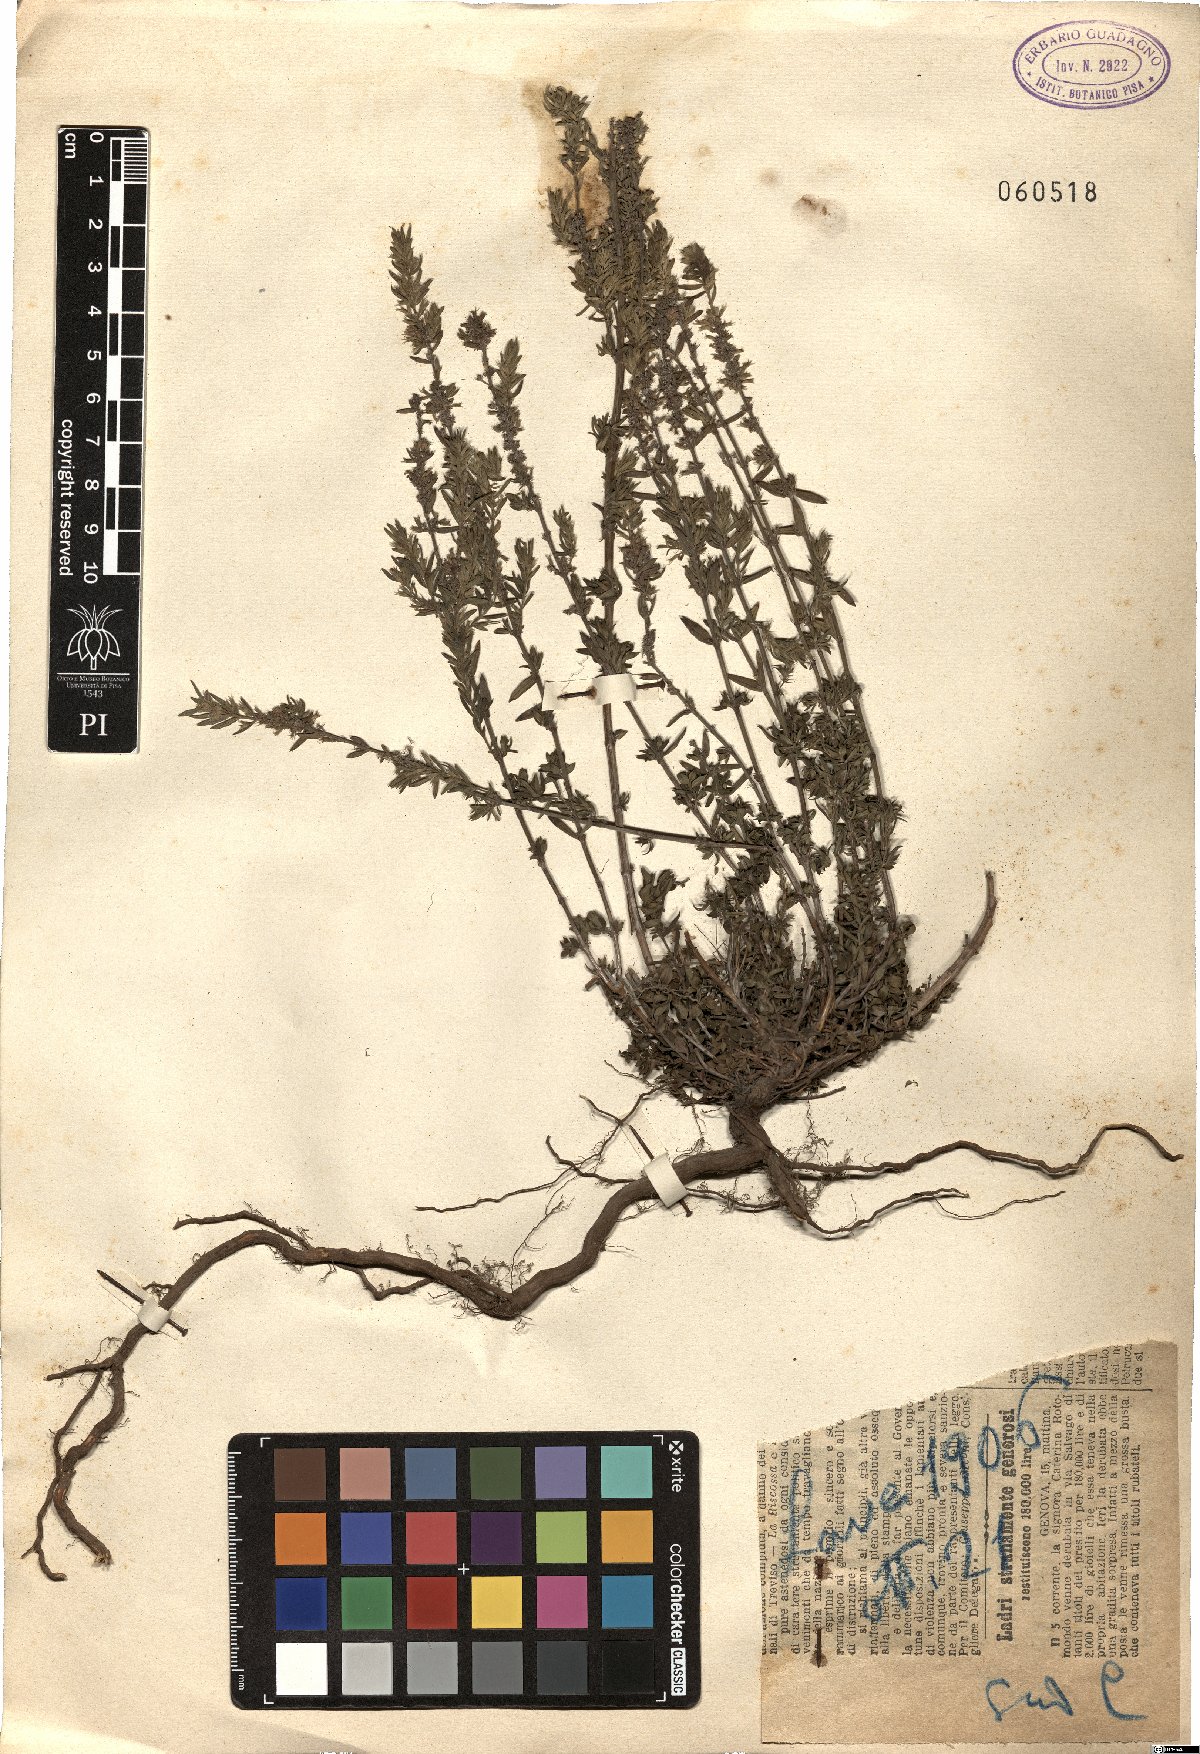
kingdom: Plantae
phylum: Tracheophyta
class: Magnoliopsida
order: Lamiales
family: Lamiaceae
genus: Thymus
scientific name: Thymus
